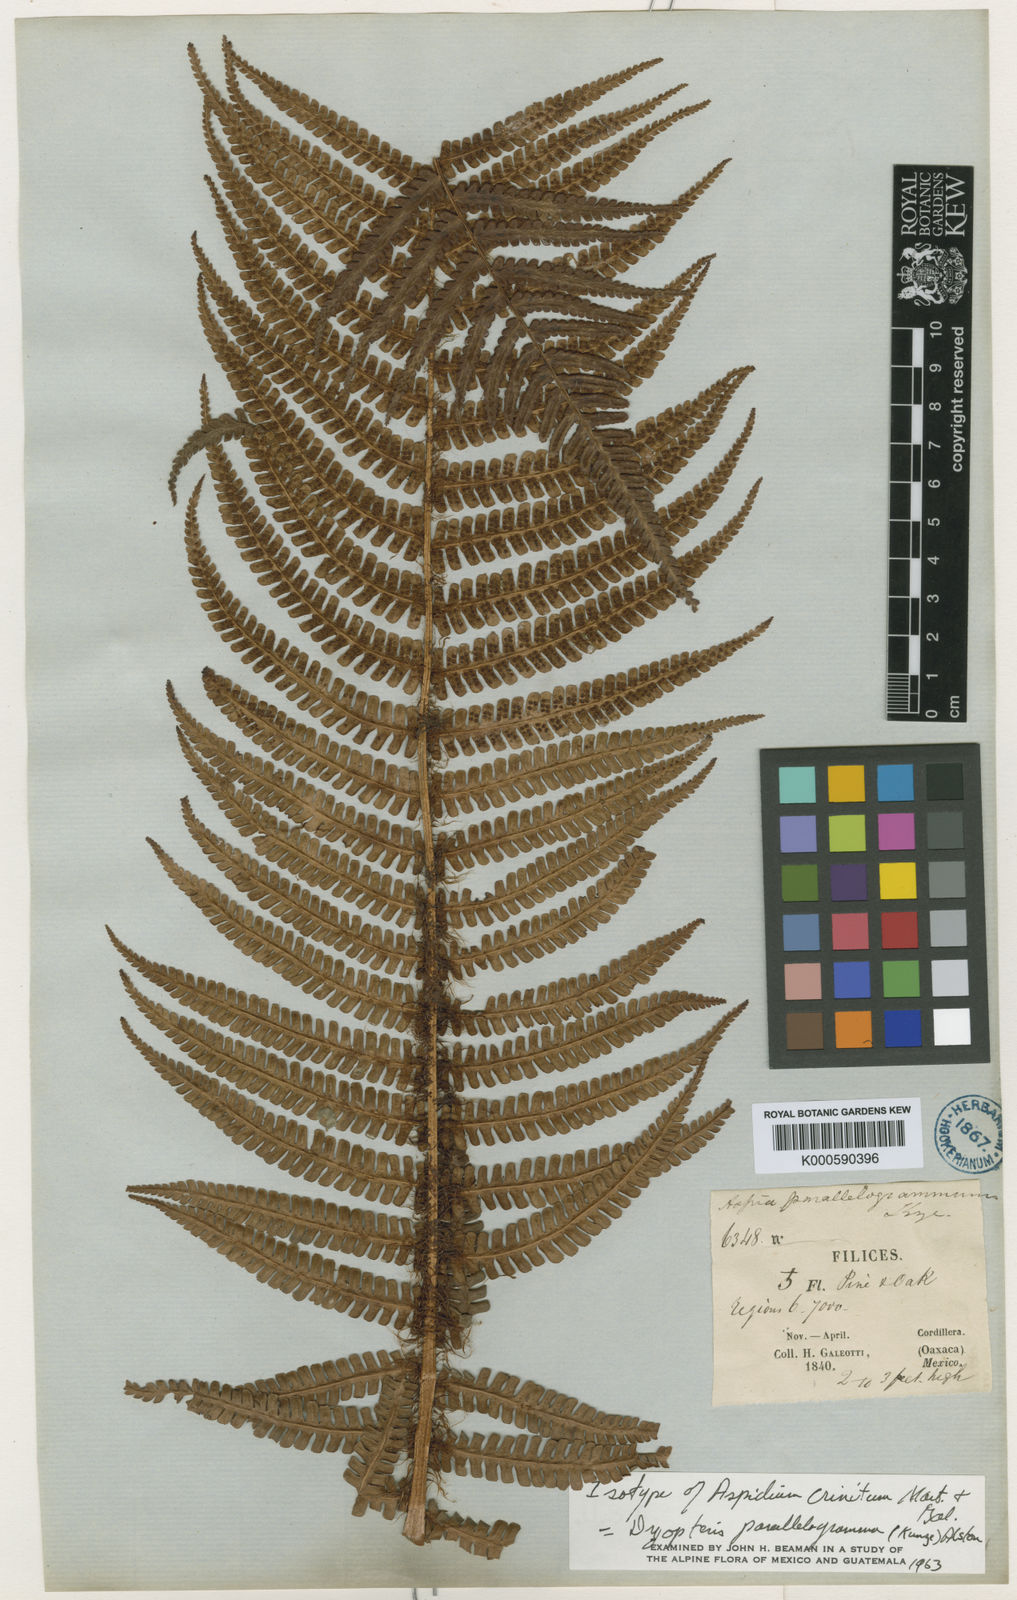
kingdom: Plantae
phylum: Tracheophyta
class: Polypodiopsida
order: Polypodiales
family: Dryopteridaceae
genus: Dryopteris
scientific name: Dryopteris wallichiana
